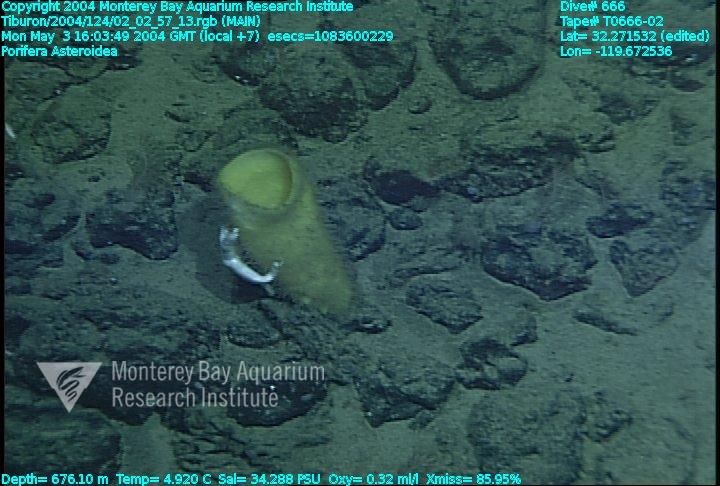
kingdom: Animalia
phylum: Porifera
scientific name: Porifera
